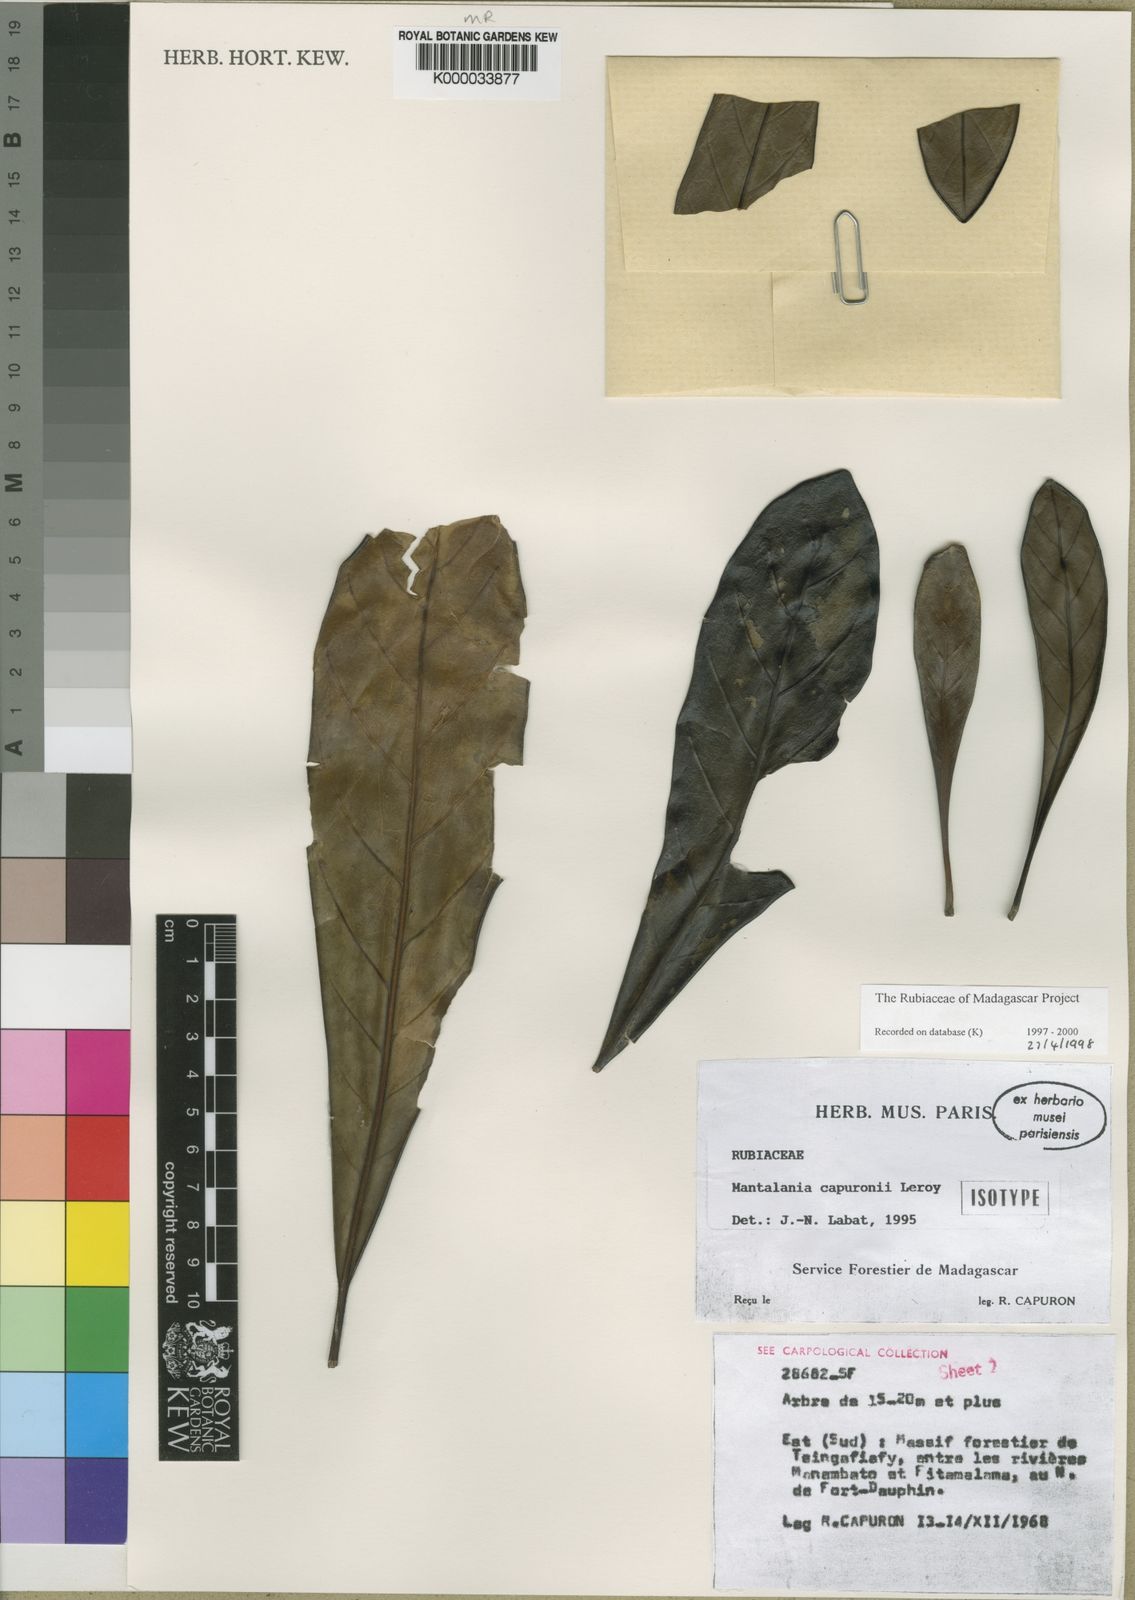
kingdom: Plantae
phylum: Tracheophyta
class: Magnoliopsida
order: Gentianales
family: Rubiaceae
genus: Mantalania
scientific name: Mantalania capuronii
